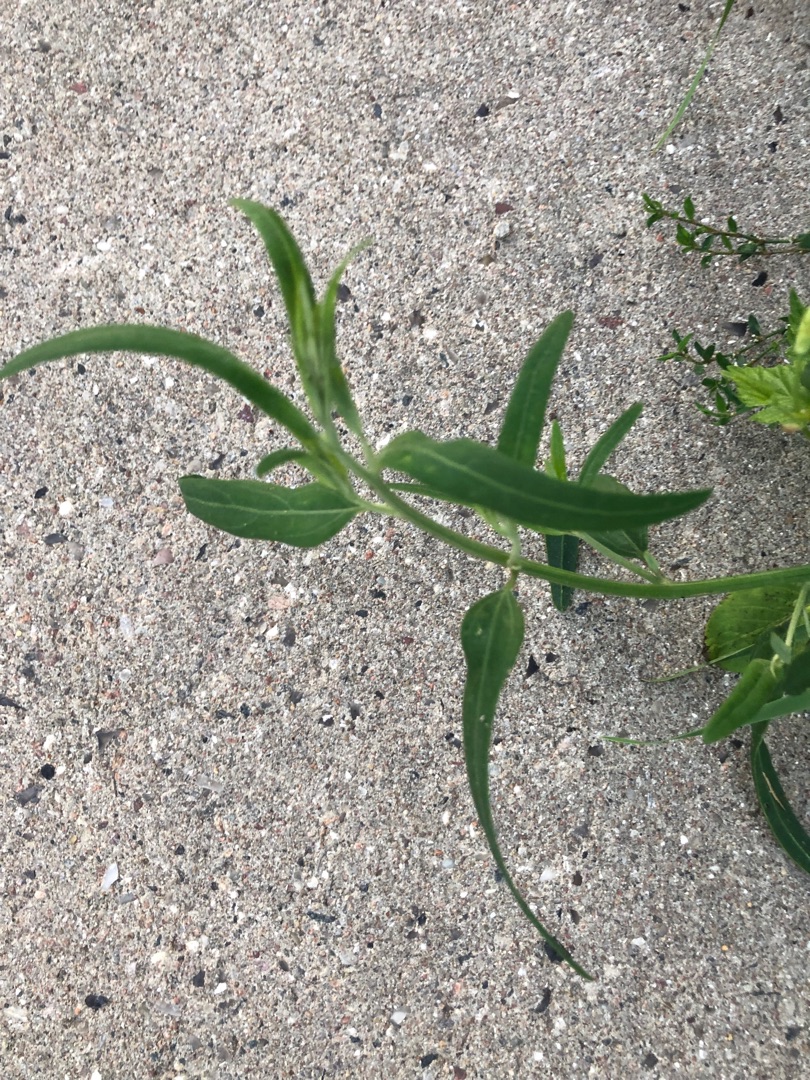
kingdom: Plantae
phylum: Tracheophyta
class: Magnoliopsida
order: Caryophyllales
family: Amaranthaceae
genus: Atriplex
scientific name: Atriplex patula
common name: Svine-mælde
